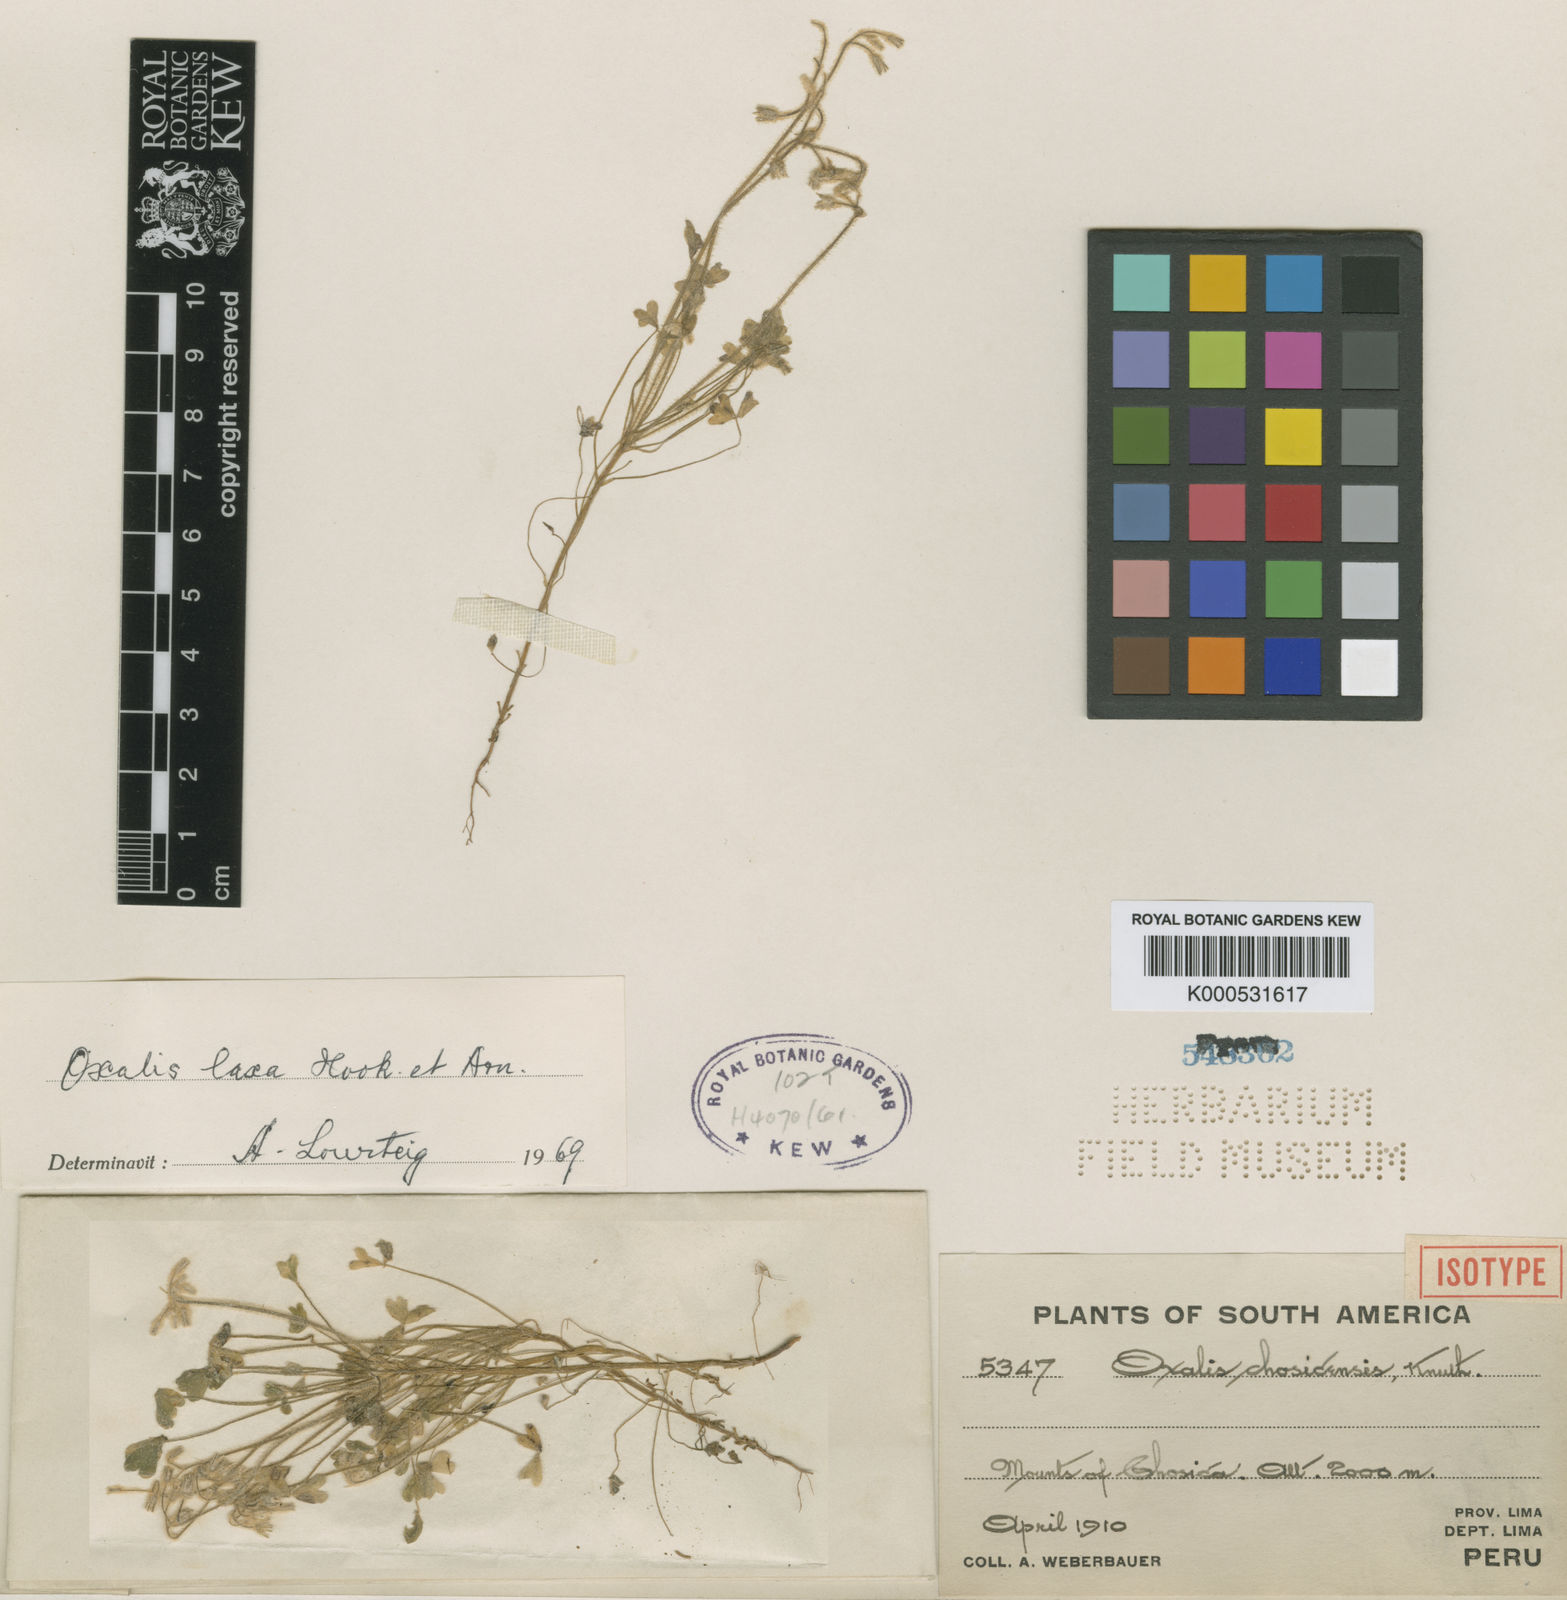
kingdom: Plantae
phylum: Tracheophyta
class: Magnoliopsida
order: Oxalidales
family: Oxalidaceae
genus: Oxalis
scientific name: Oxalis laxa
